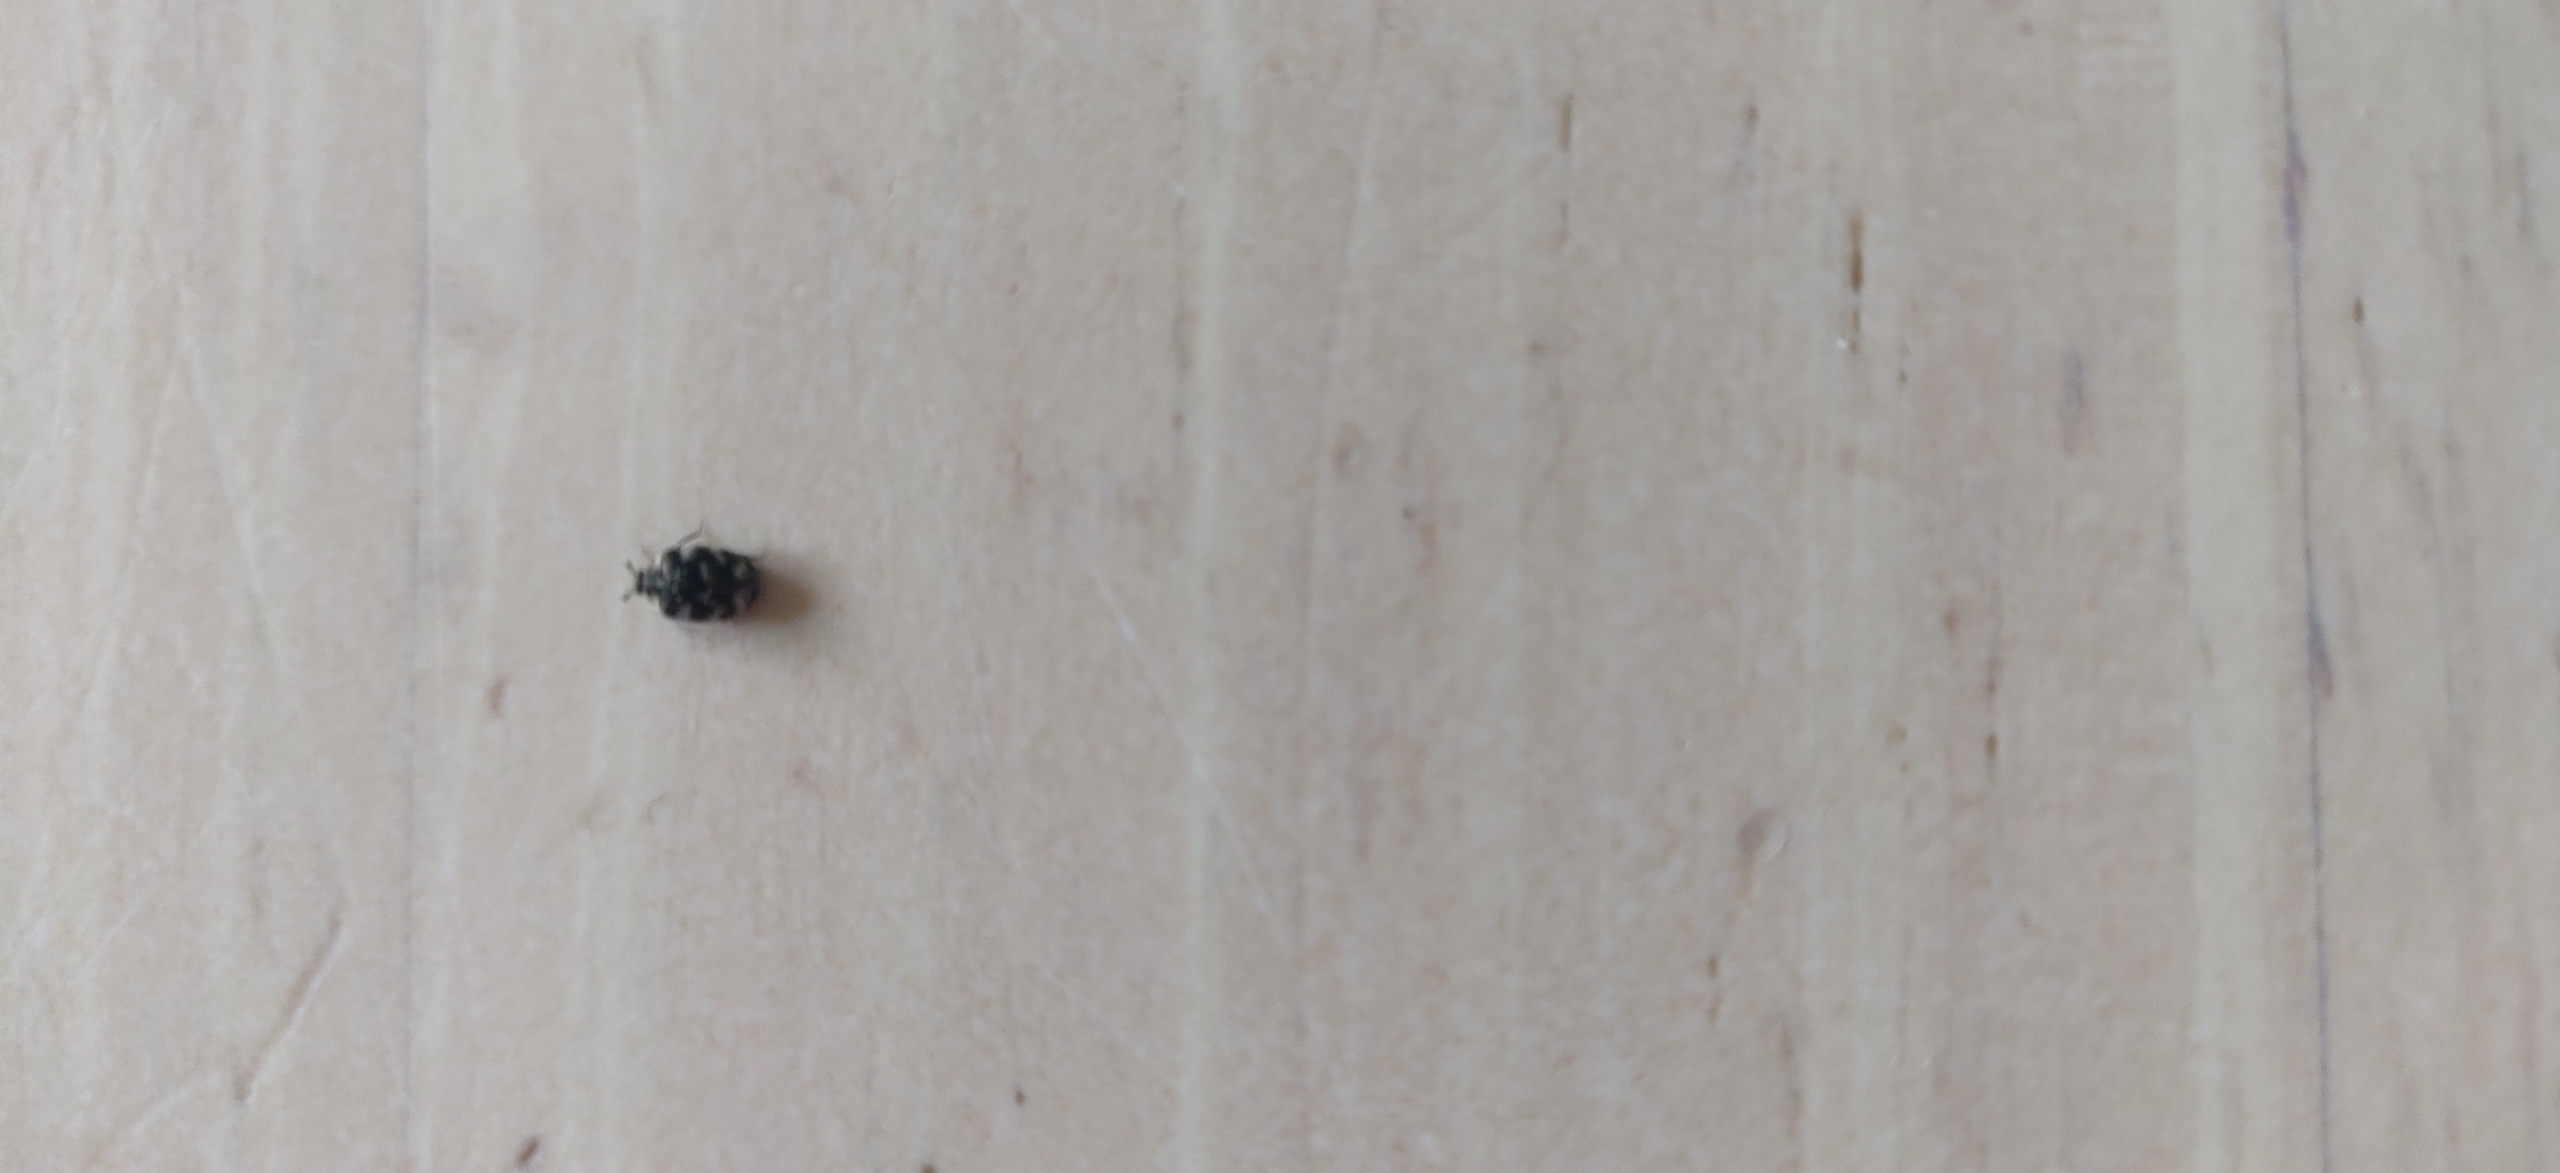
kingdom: Animalia
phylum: Arthropoda
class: Insecta
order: Coleoptera
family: Dermestidae
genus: Anthrenus
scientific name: Anthrenus
